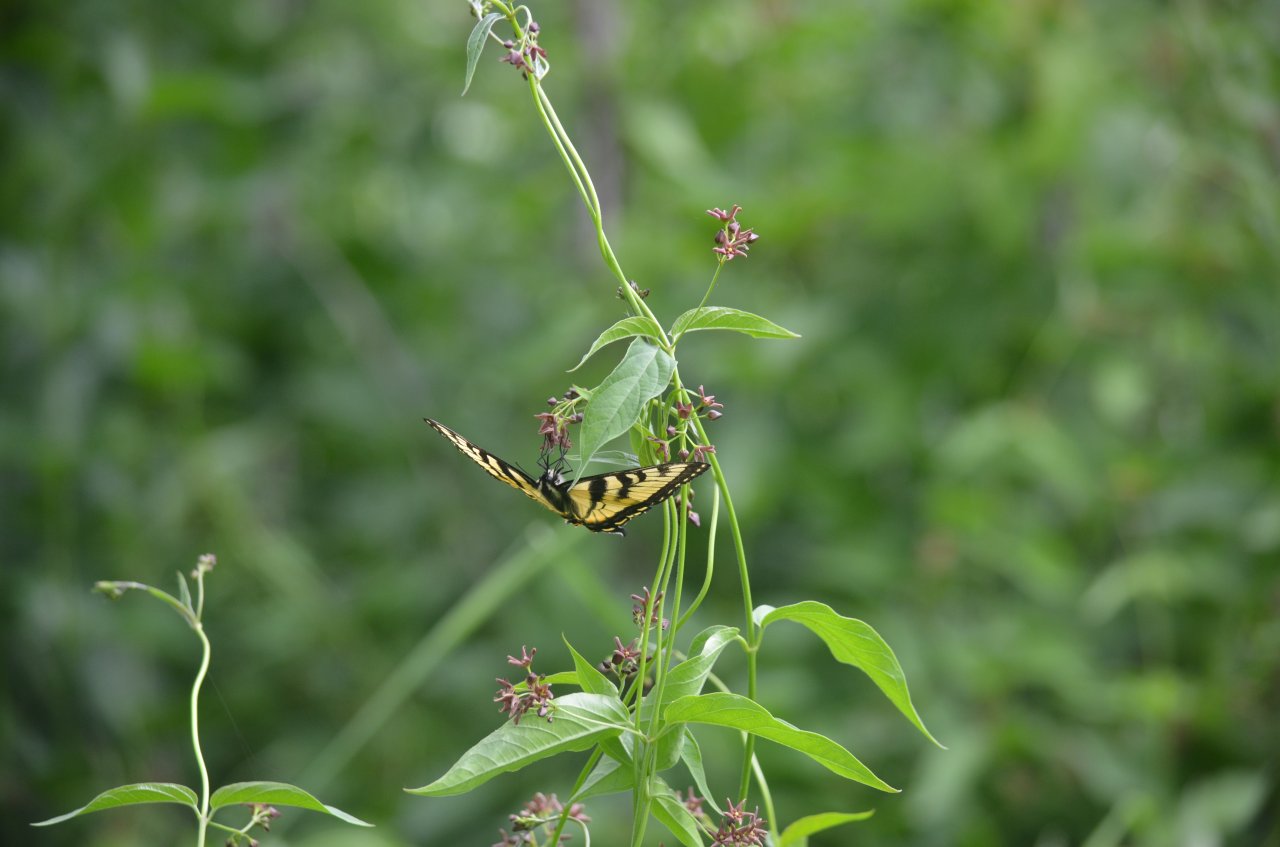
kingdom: Animalia
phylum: Arthropoda
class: Insecta
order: Lepidoptera
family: Papilionidae
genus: Pterourus
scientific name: Pterourus canadensis
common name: Canadian Tiger Swallowtail
